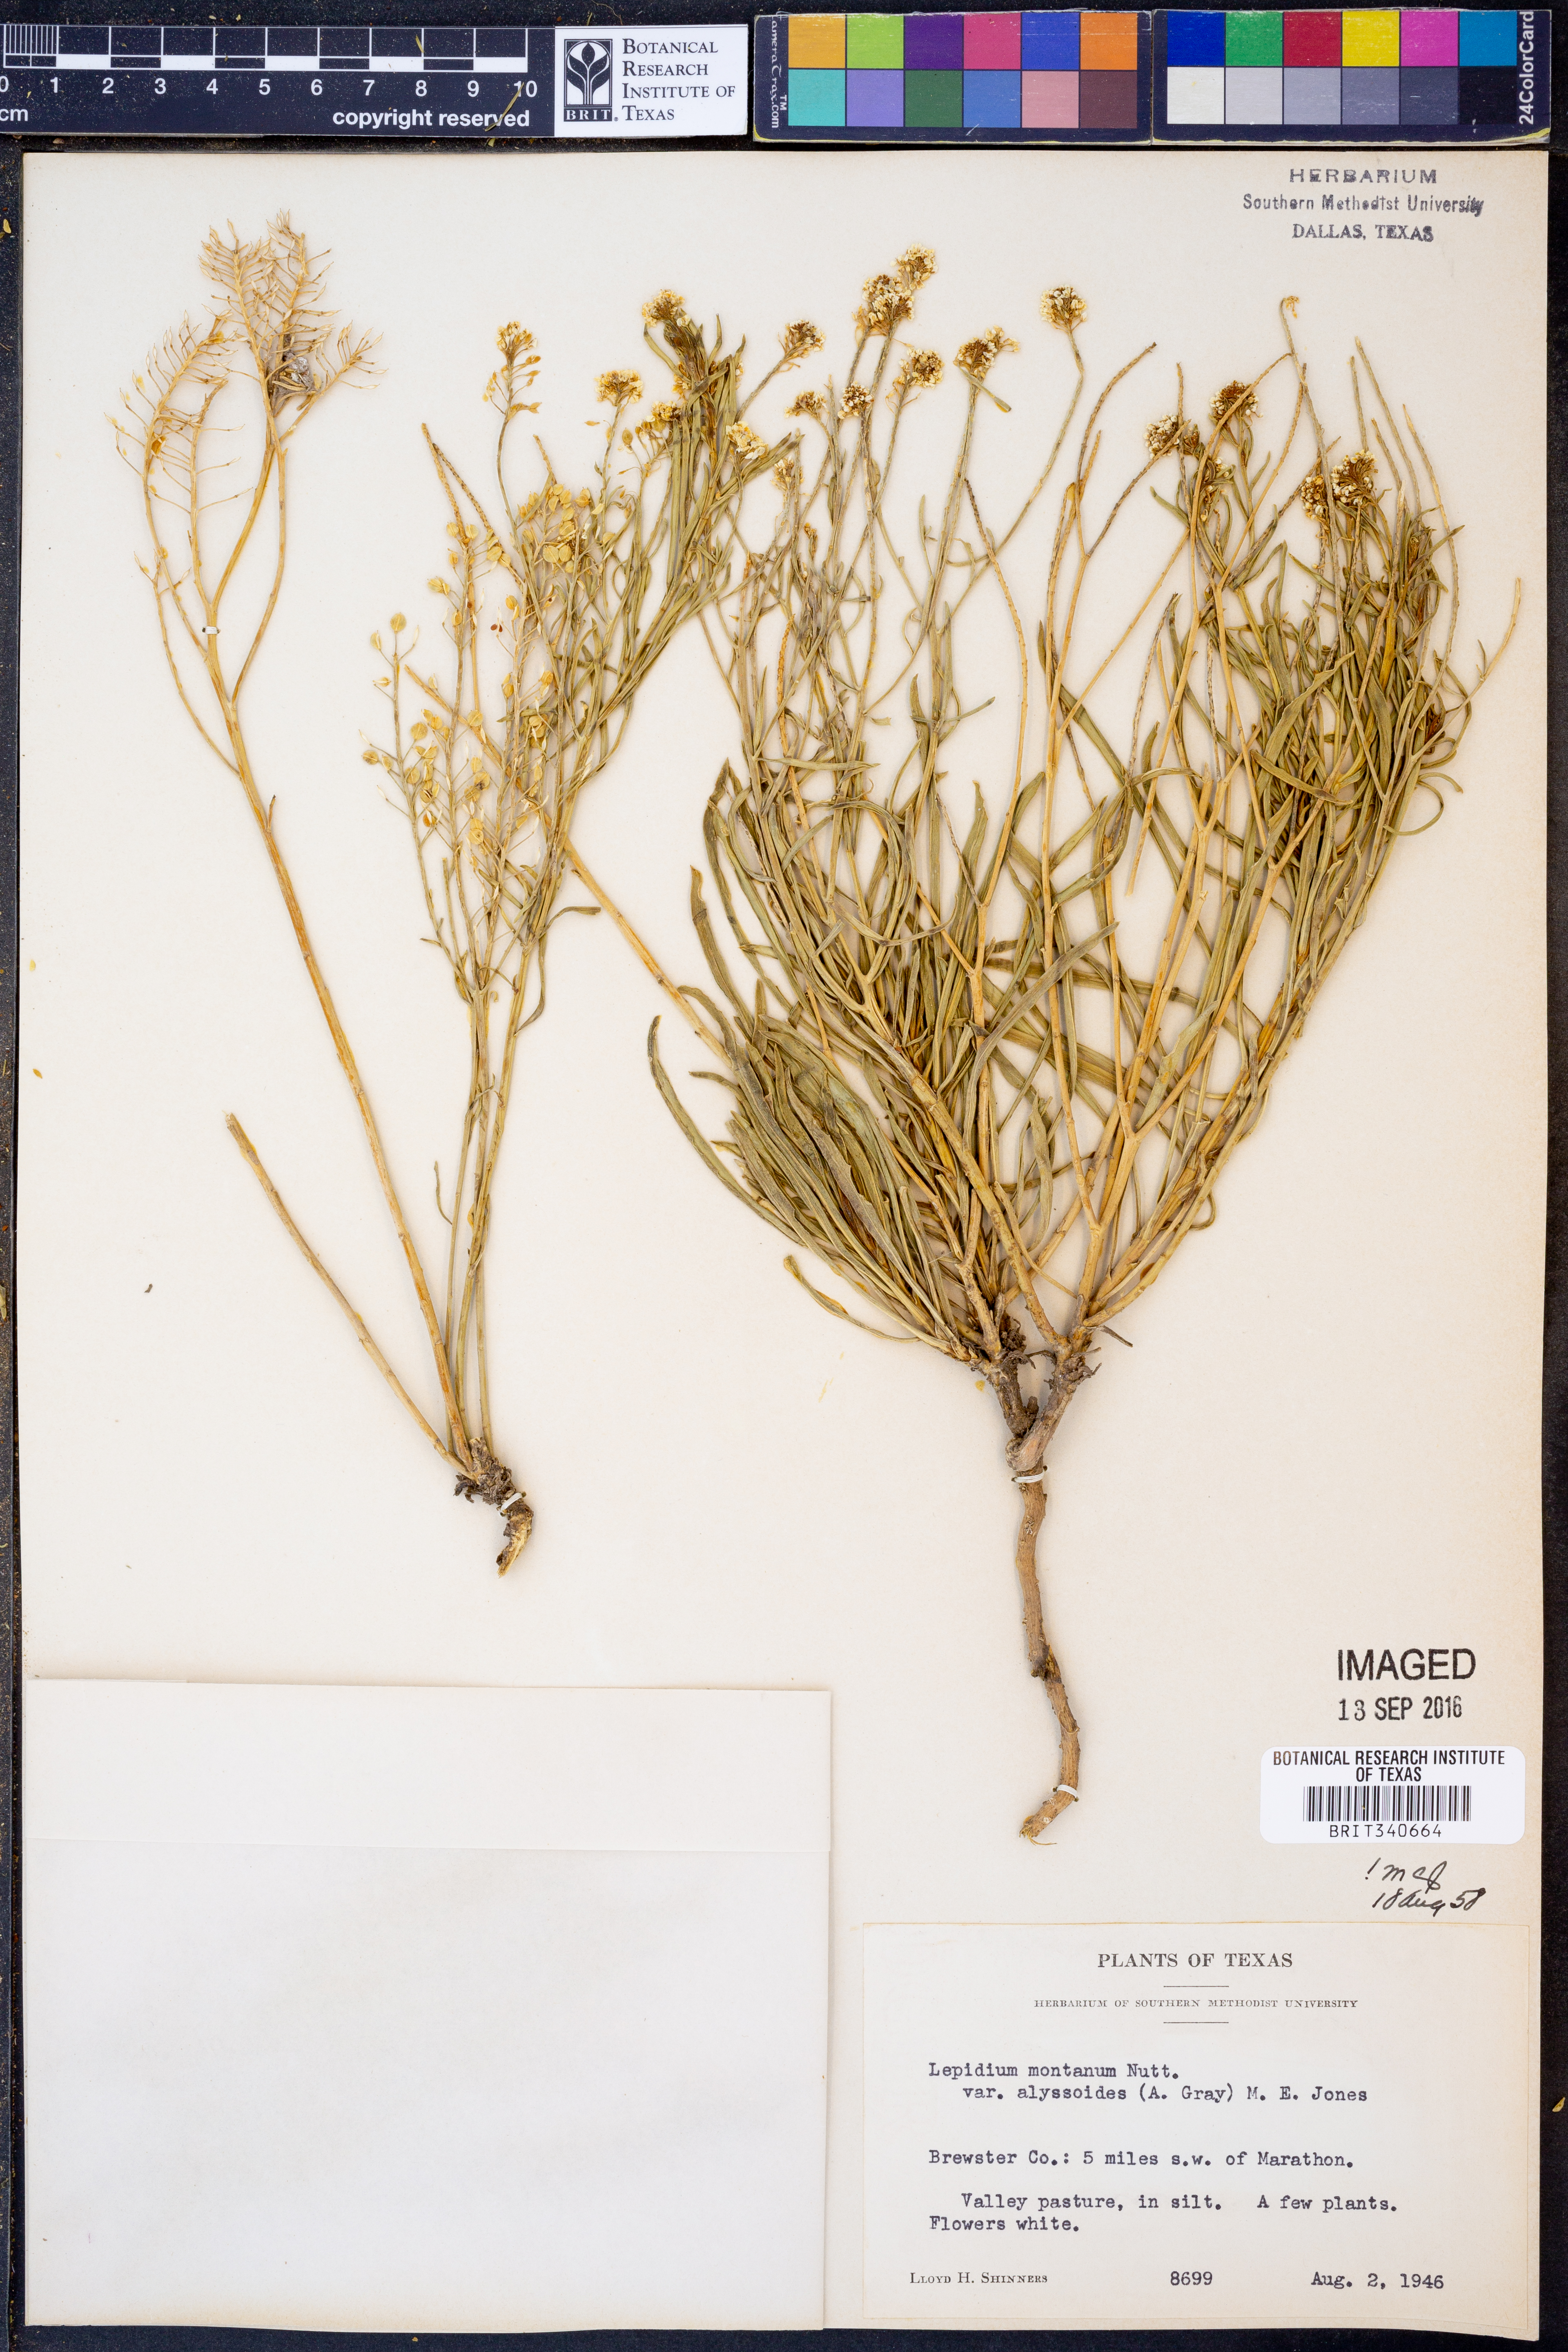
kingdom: Plantae
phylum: Tracheophyta
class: Magnoliopsida
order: Brassicales
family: Brassicaceae
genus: Lepidium
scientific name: Lepidium alyssoides
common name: Mesa pepperweed
